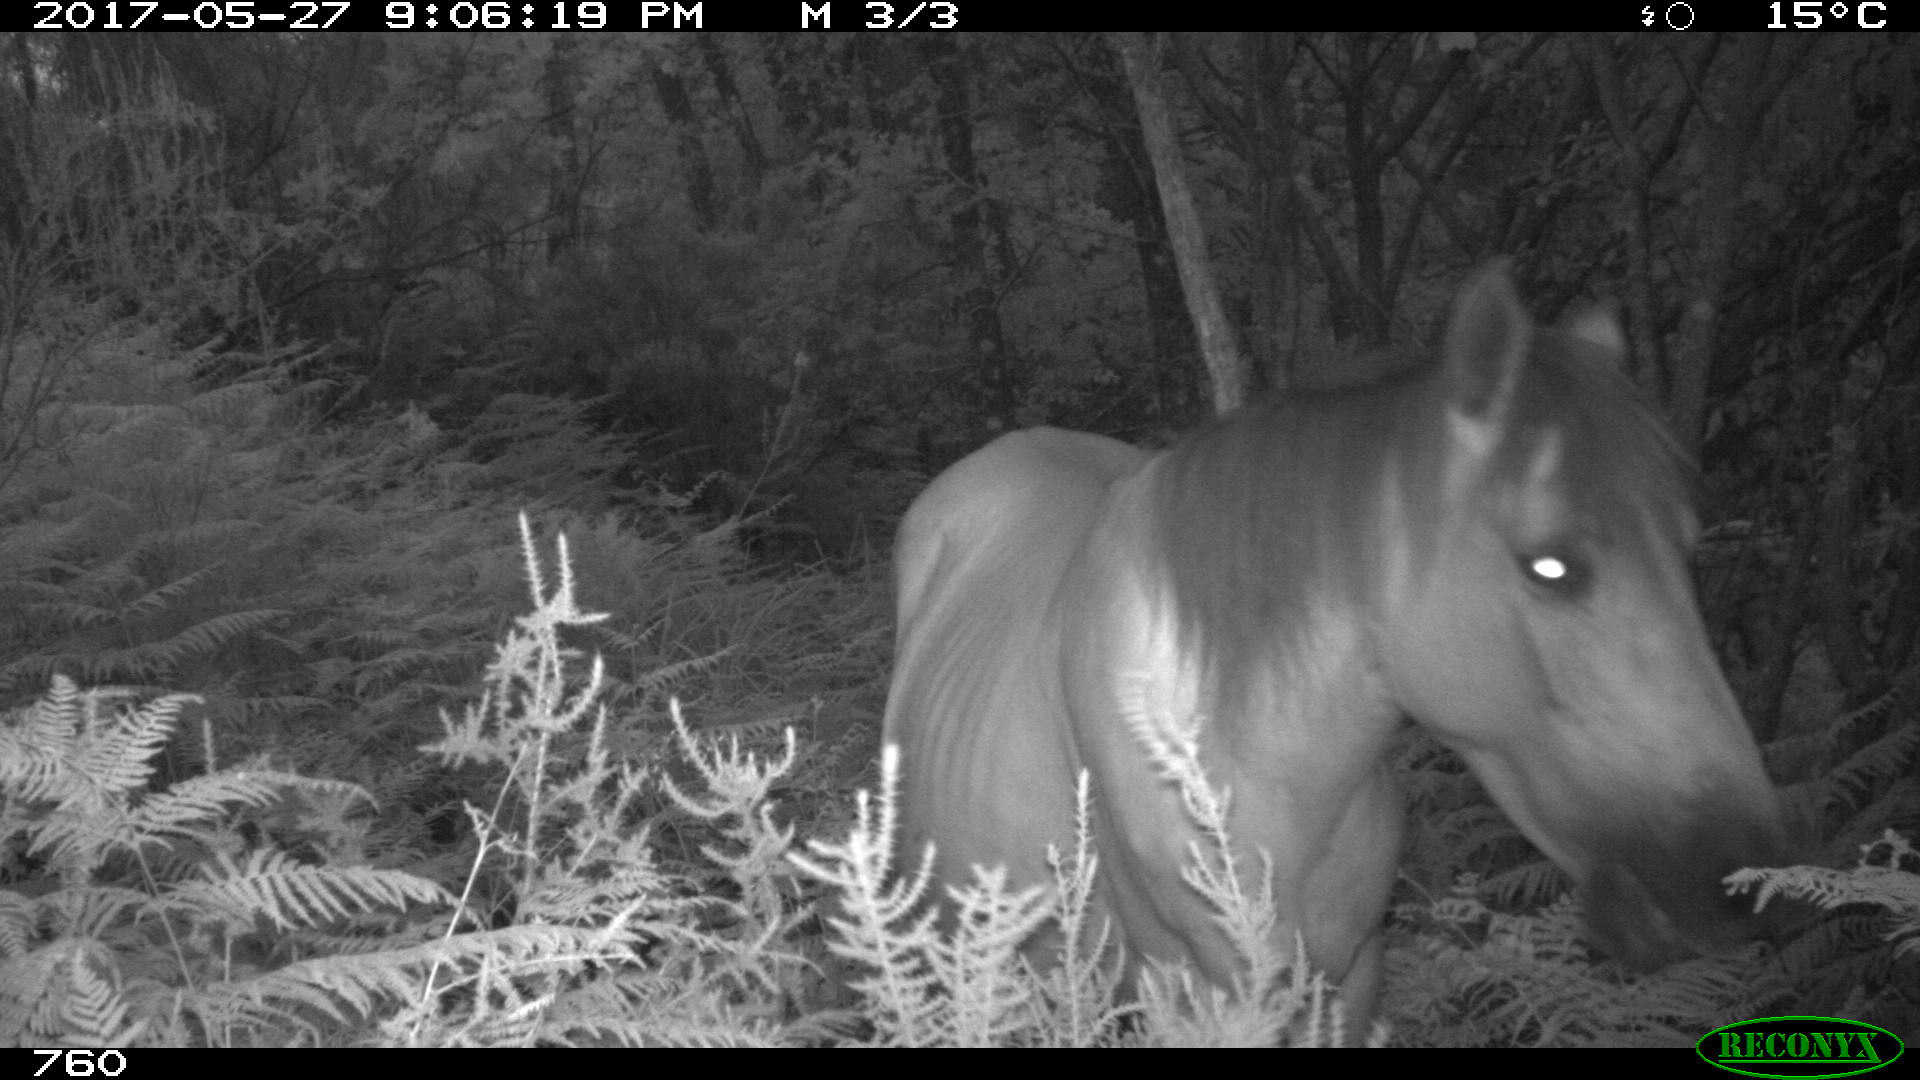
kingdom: Animalia
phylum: Chordata
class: Mammalia
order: Perissodactyla
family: Equidae
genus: Equus
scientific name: Equus caballus
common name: Horse
